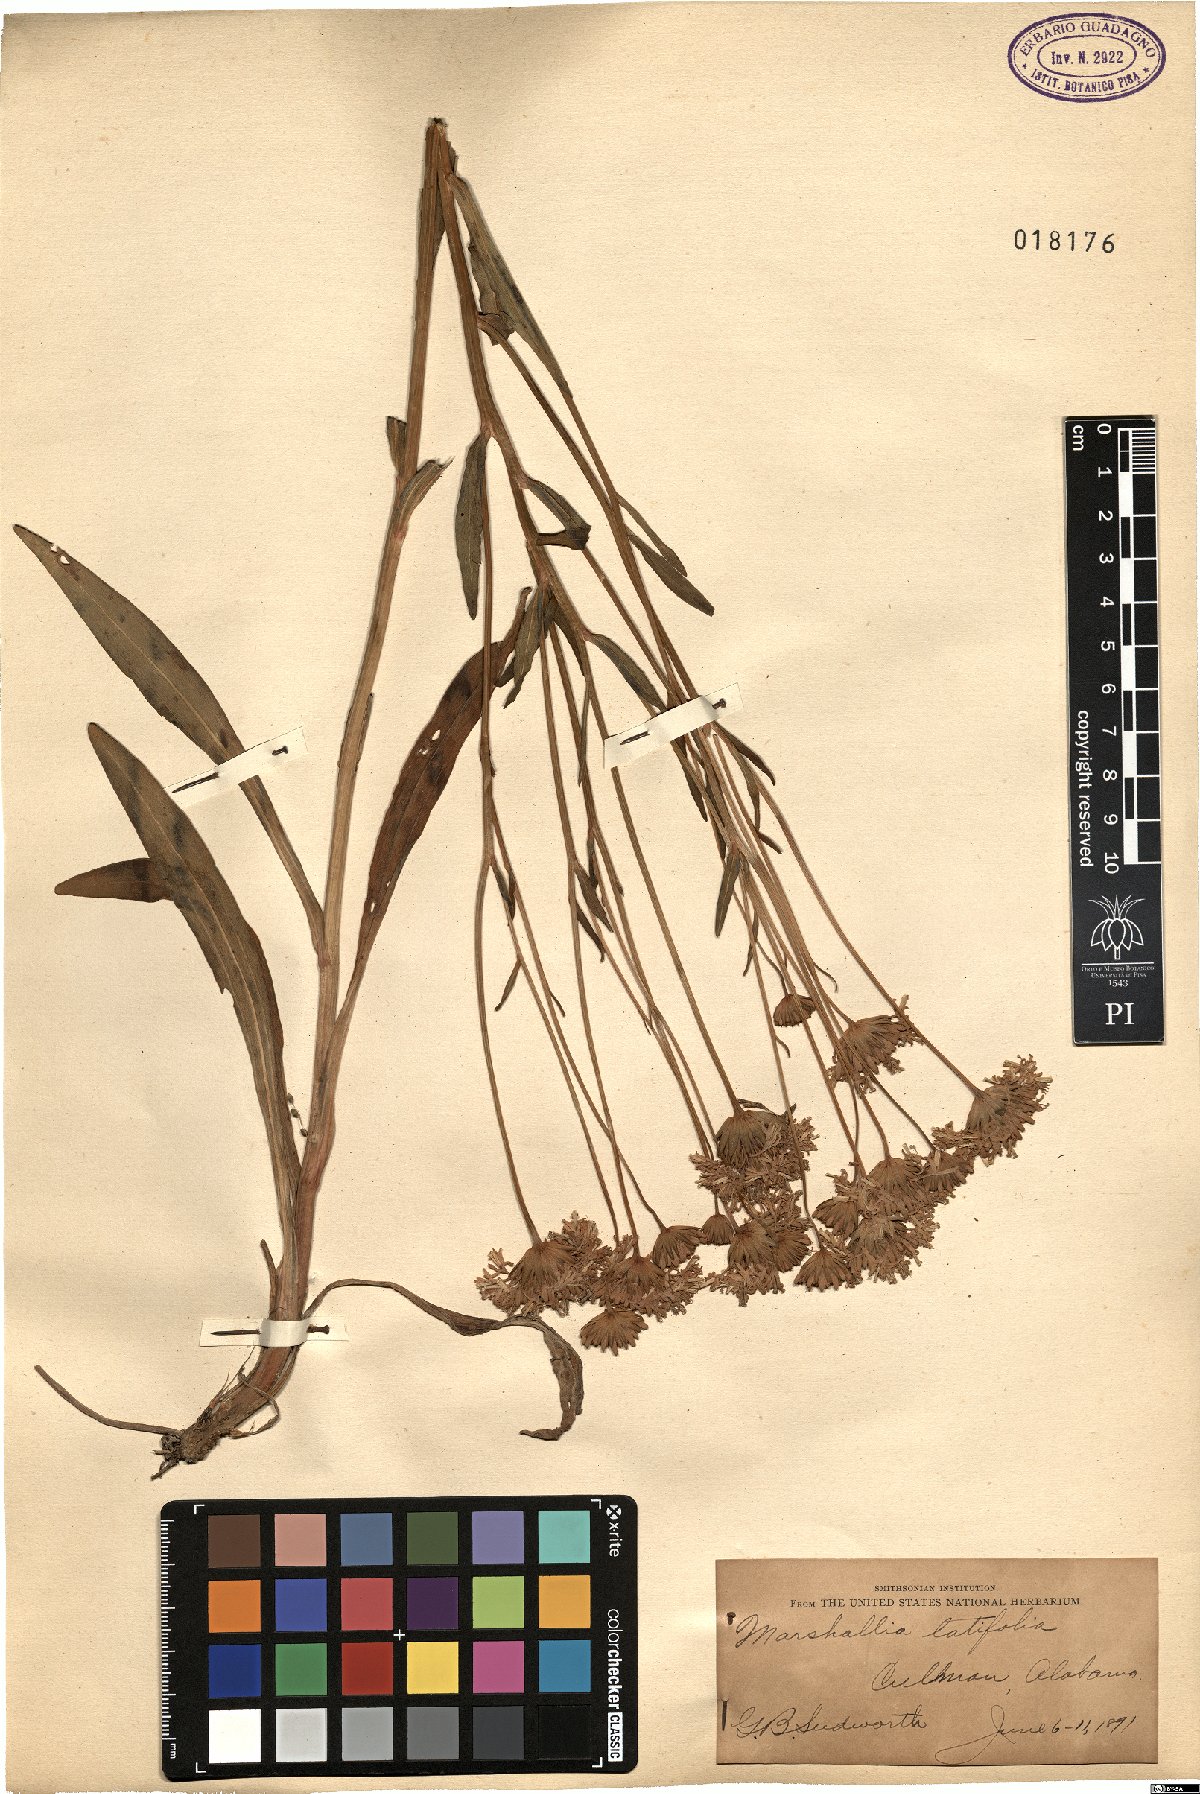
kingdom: Plantae
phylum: Tracheophyta
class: Magnoliopsida
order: Asterales
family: Asteraceae
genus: Marshallia
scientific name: Marshallia trinervia
